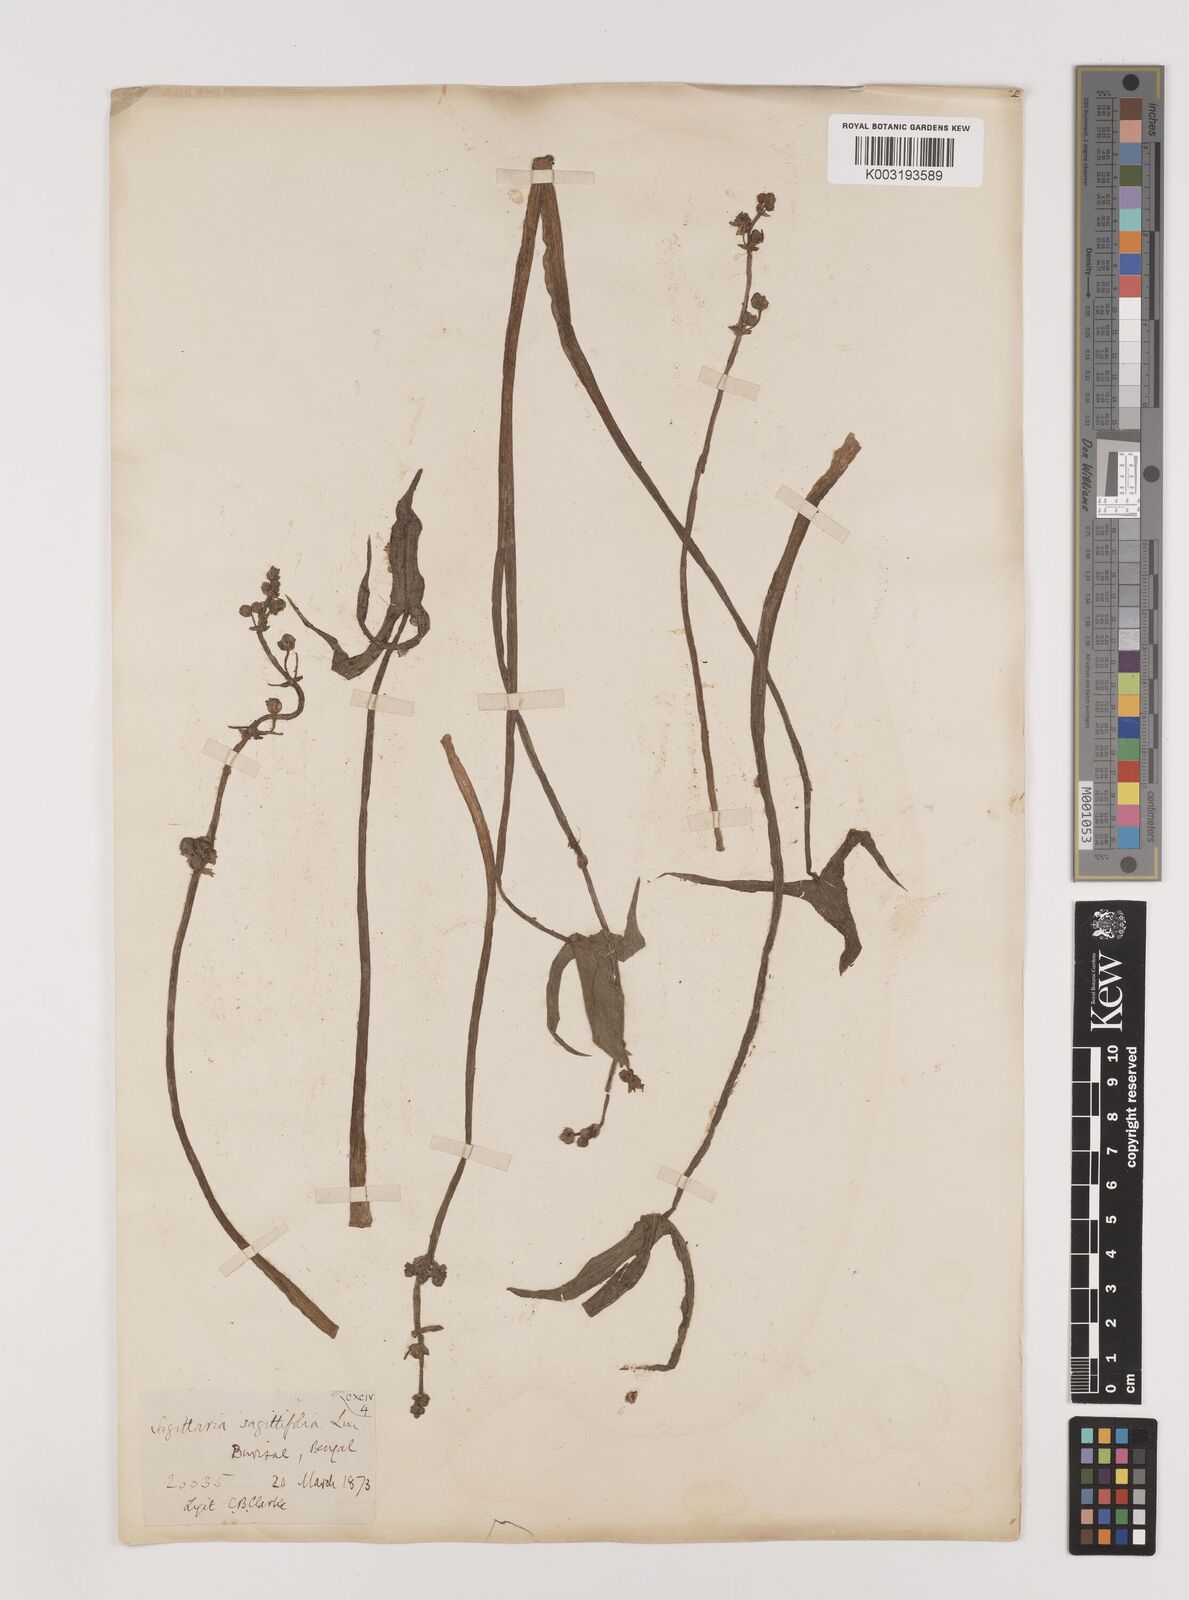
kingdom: Plantae
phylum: Tracheophyta
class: Liliopsida
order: Alismatales
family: Alismataceae
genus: Sagittaria
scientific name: Sagittaria sagittifolia
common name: Arrowhead
